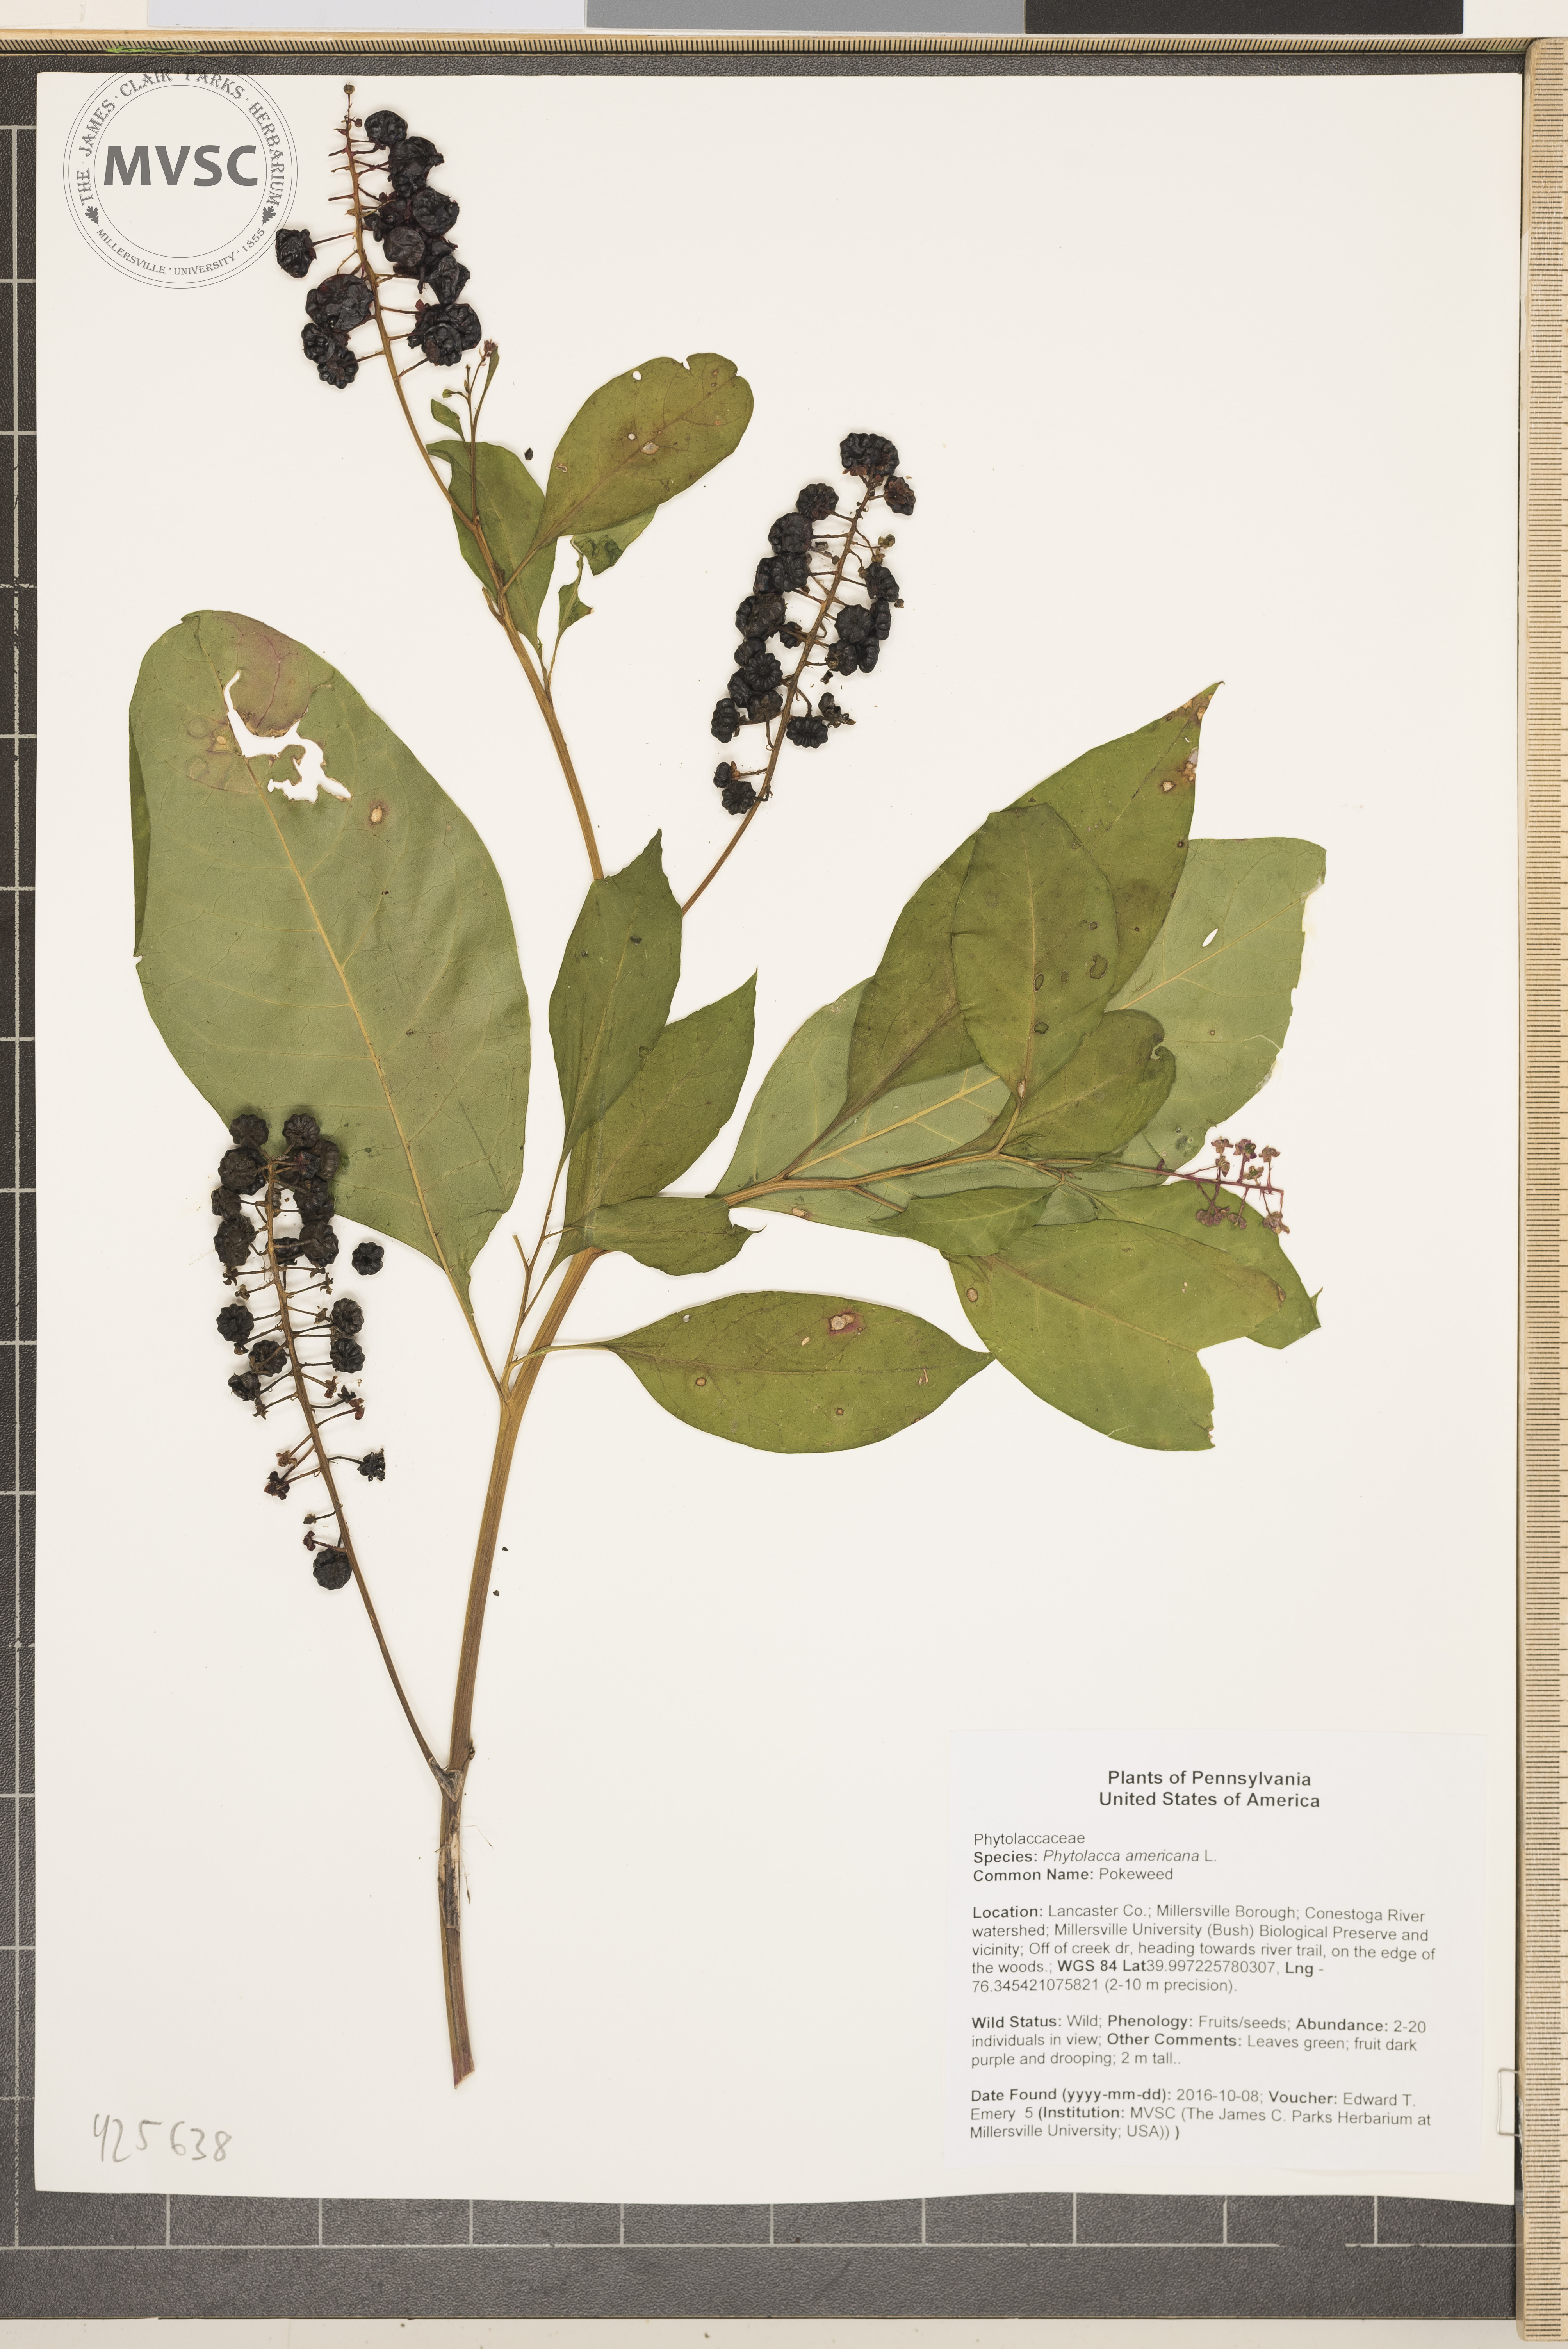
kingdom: Plantae
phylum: Tracheophyta
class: Magnoliopsida
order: Caryophyllales
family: Phytolaccaceae
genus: Phytolacca
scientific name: Phytolacca americana
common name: Pokeweed
